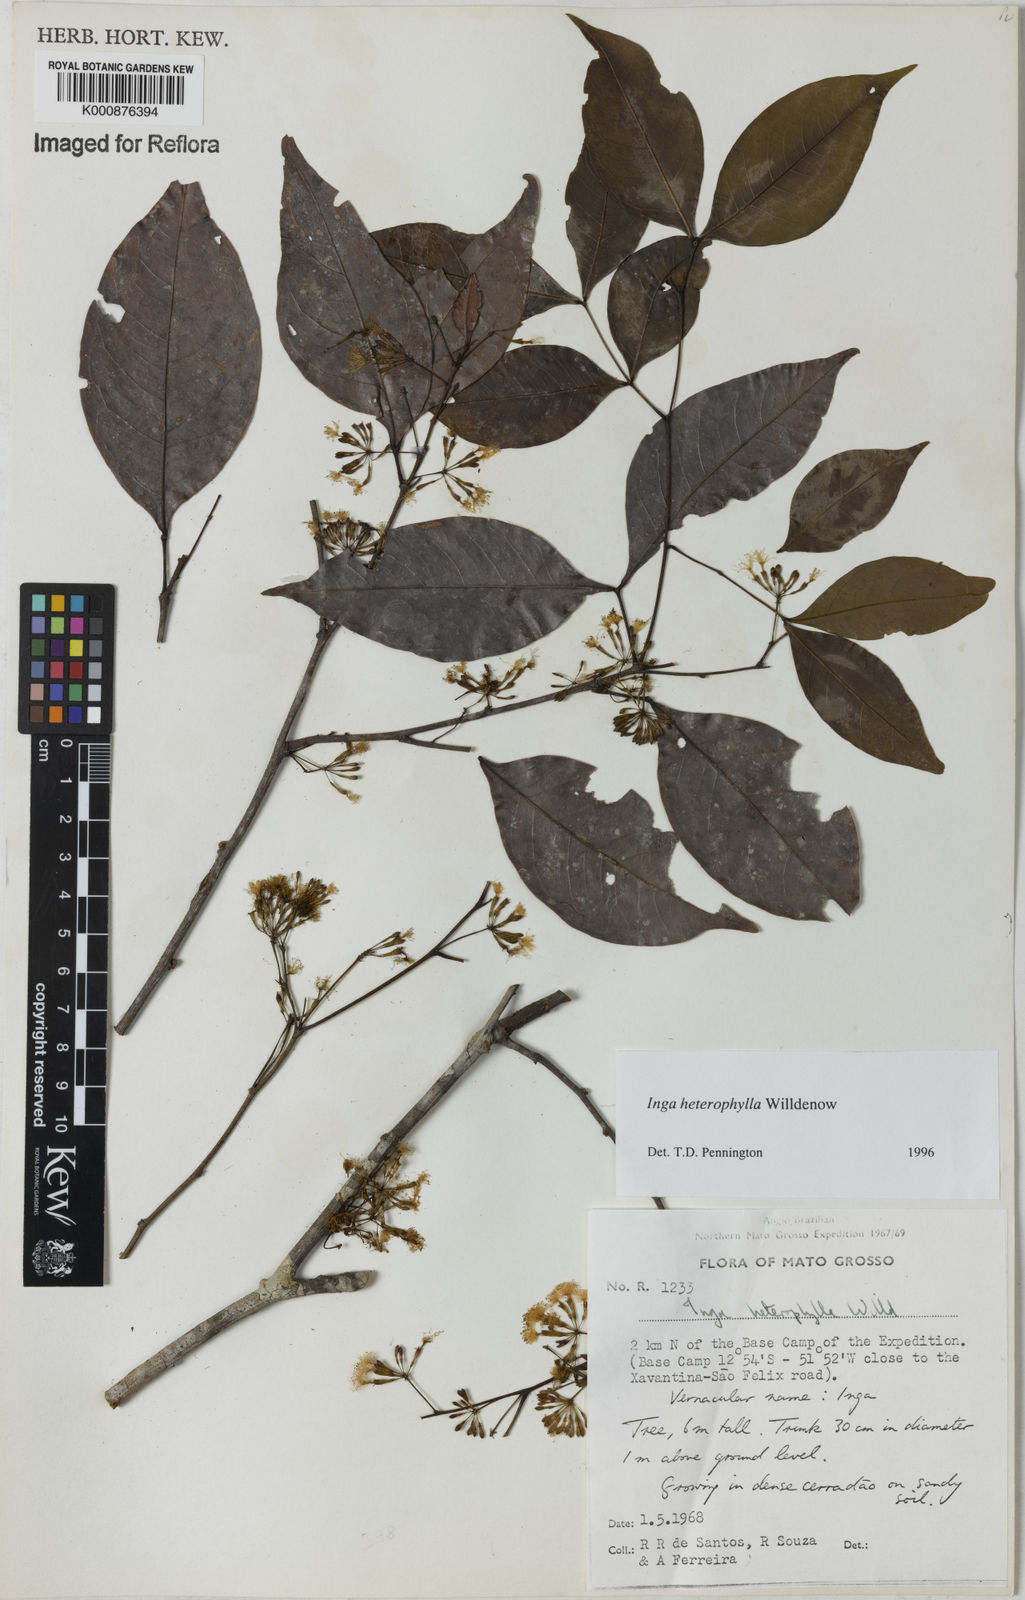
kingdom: Plantae
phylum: Tracheophyta
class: Magnoliopsida
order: Fabales
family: Fabaceae
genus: Inga
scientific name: Inga heterophylla
